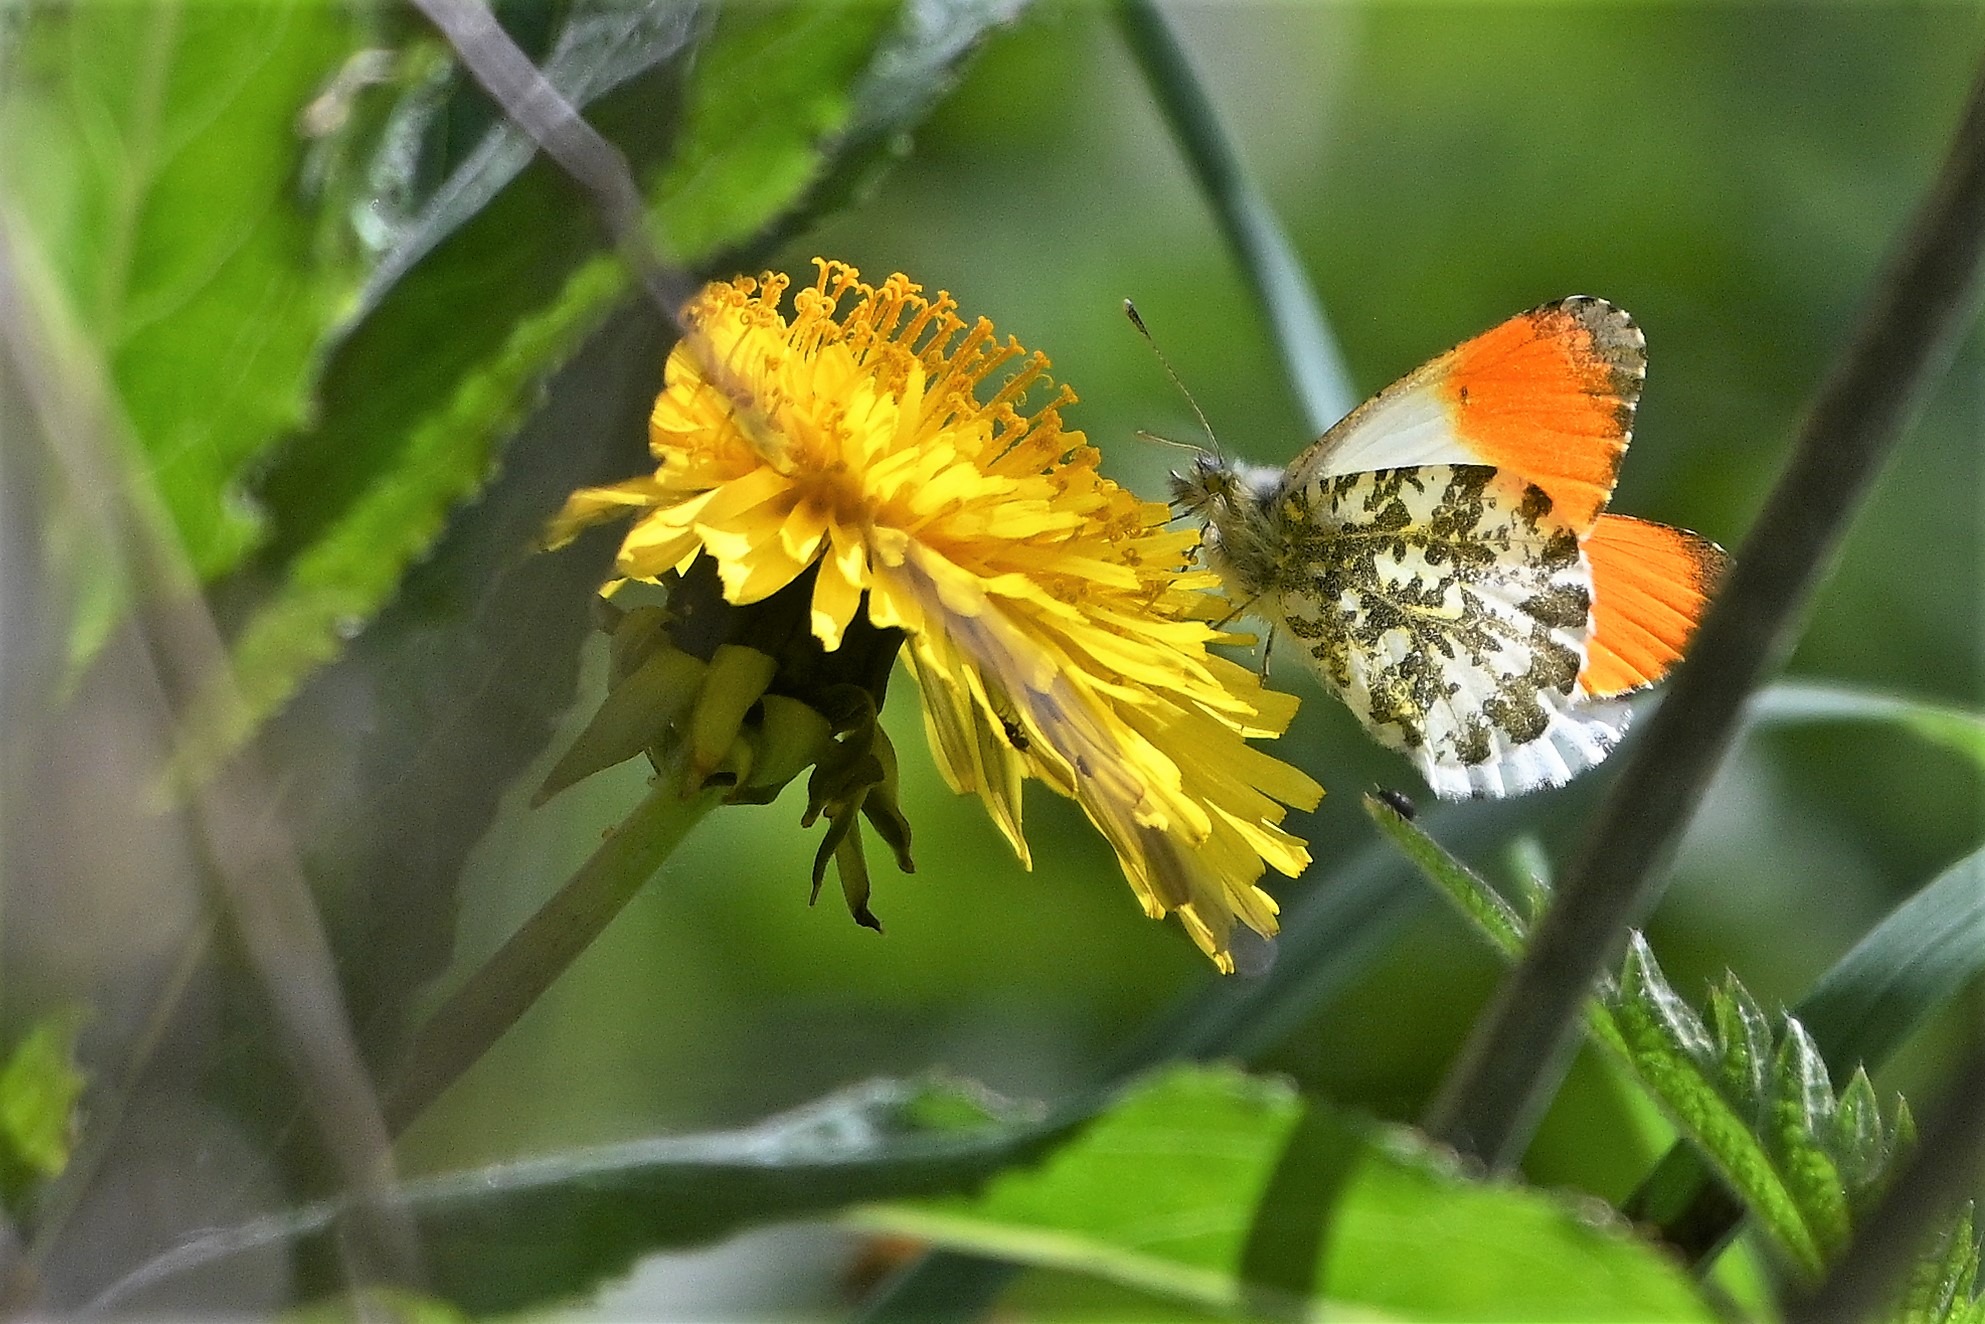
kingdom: Animalia
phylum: Arthropoda
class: Insecta
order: Lepidoptera
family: Pieridae
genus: Anthocharis
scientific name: Anthocharis cardamines
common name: Aurora
